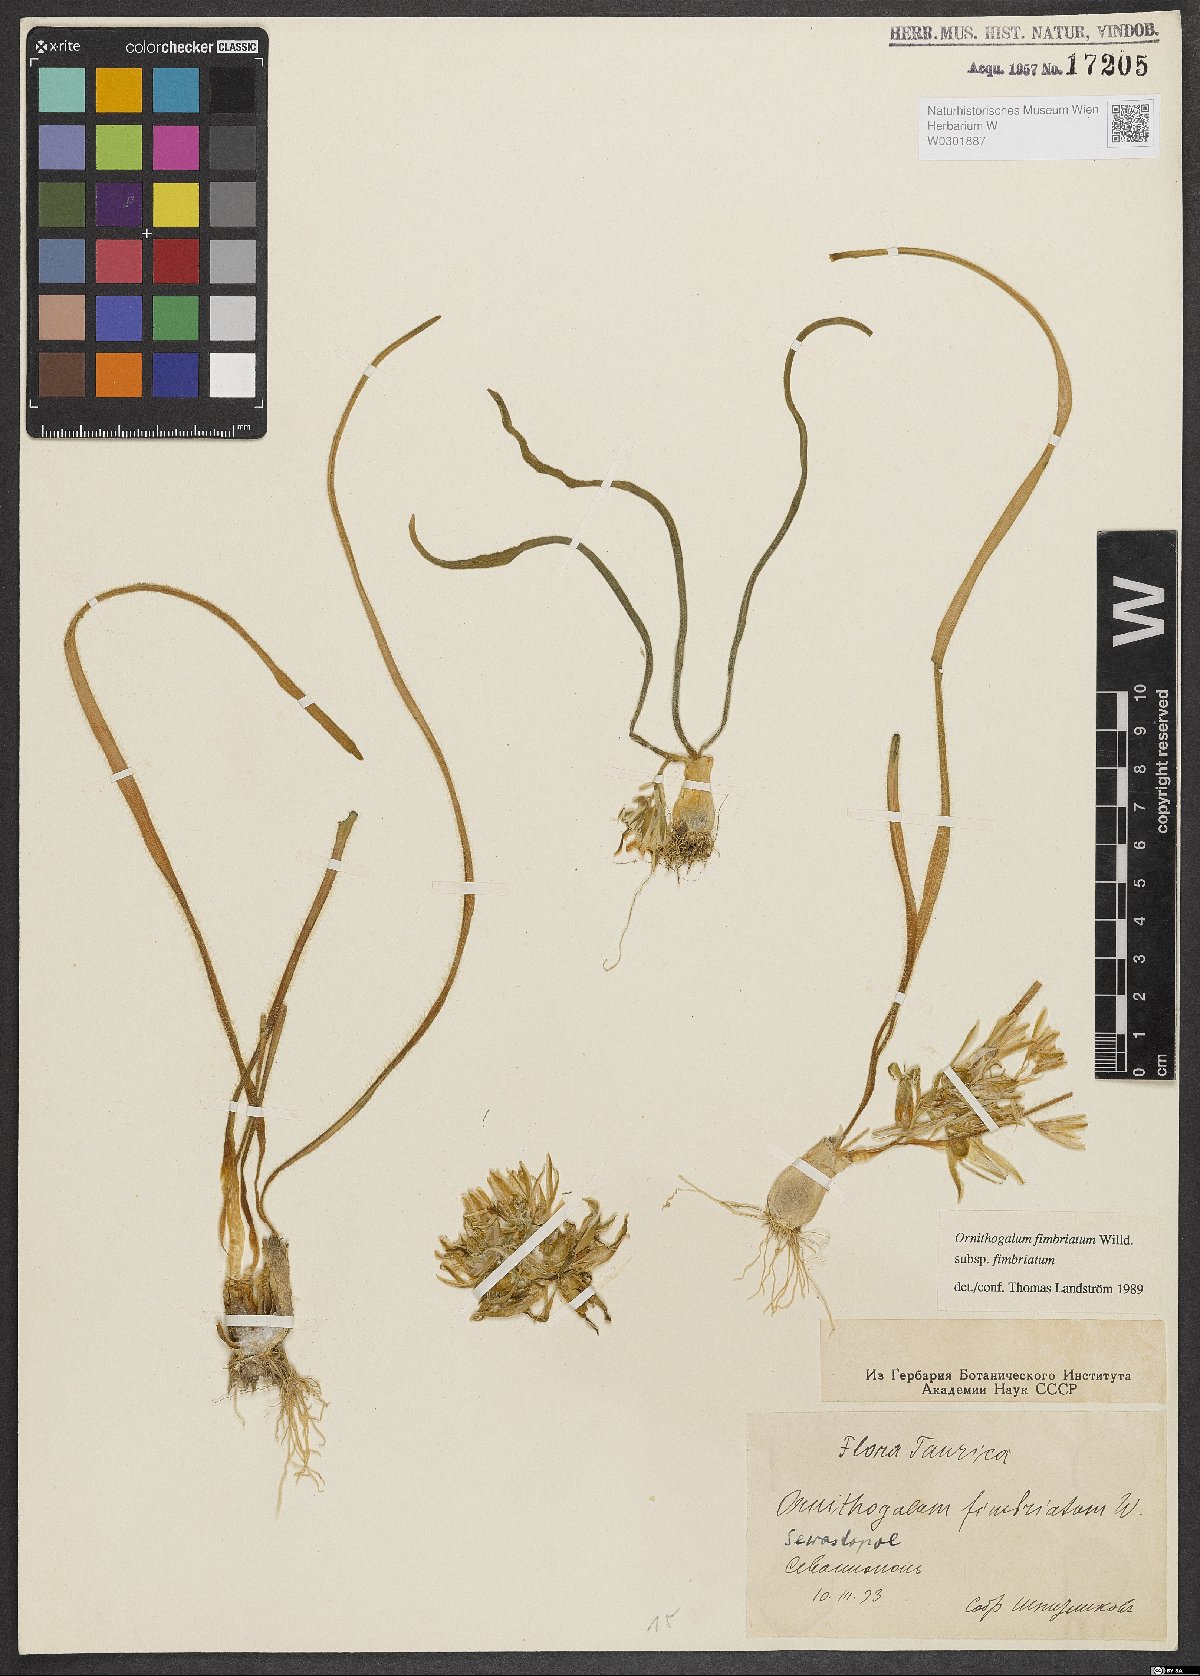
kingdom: Plantae
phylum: Tracheophyta
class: Liliopsida
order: Asparagales
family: Asparagaceae
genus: Ornithogalum
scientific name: Ornithogalum fimbriatum
